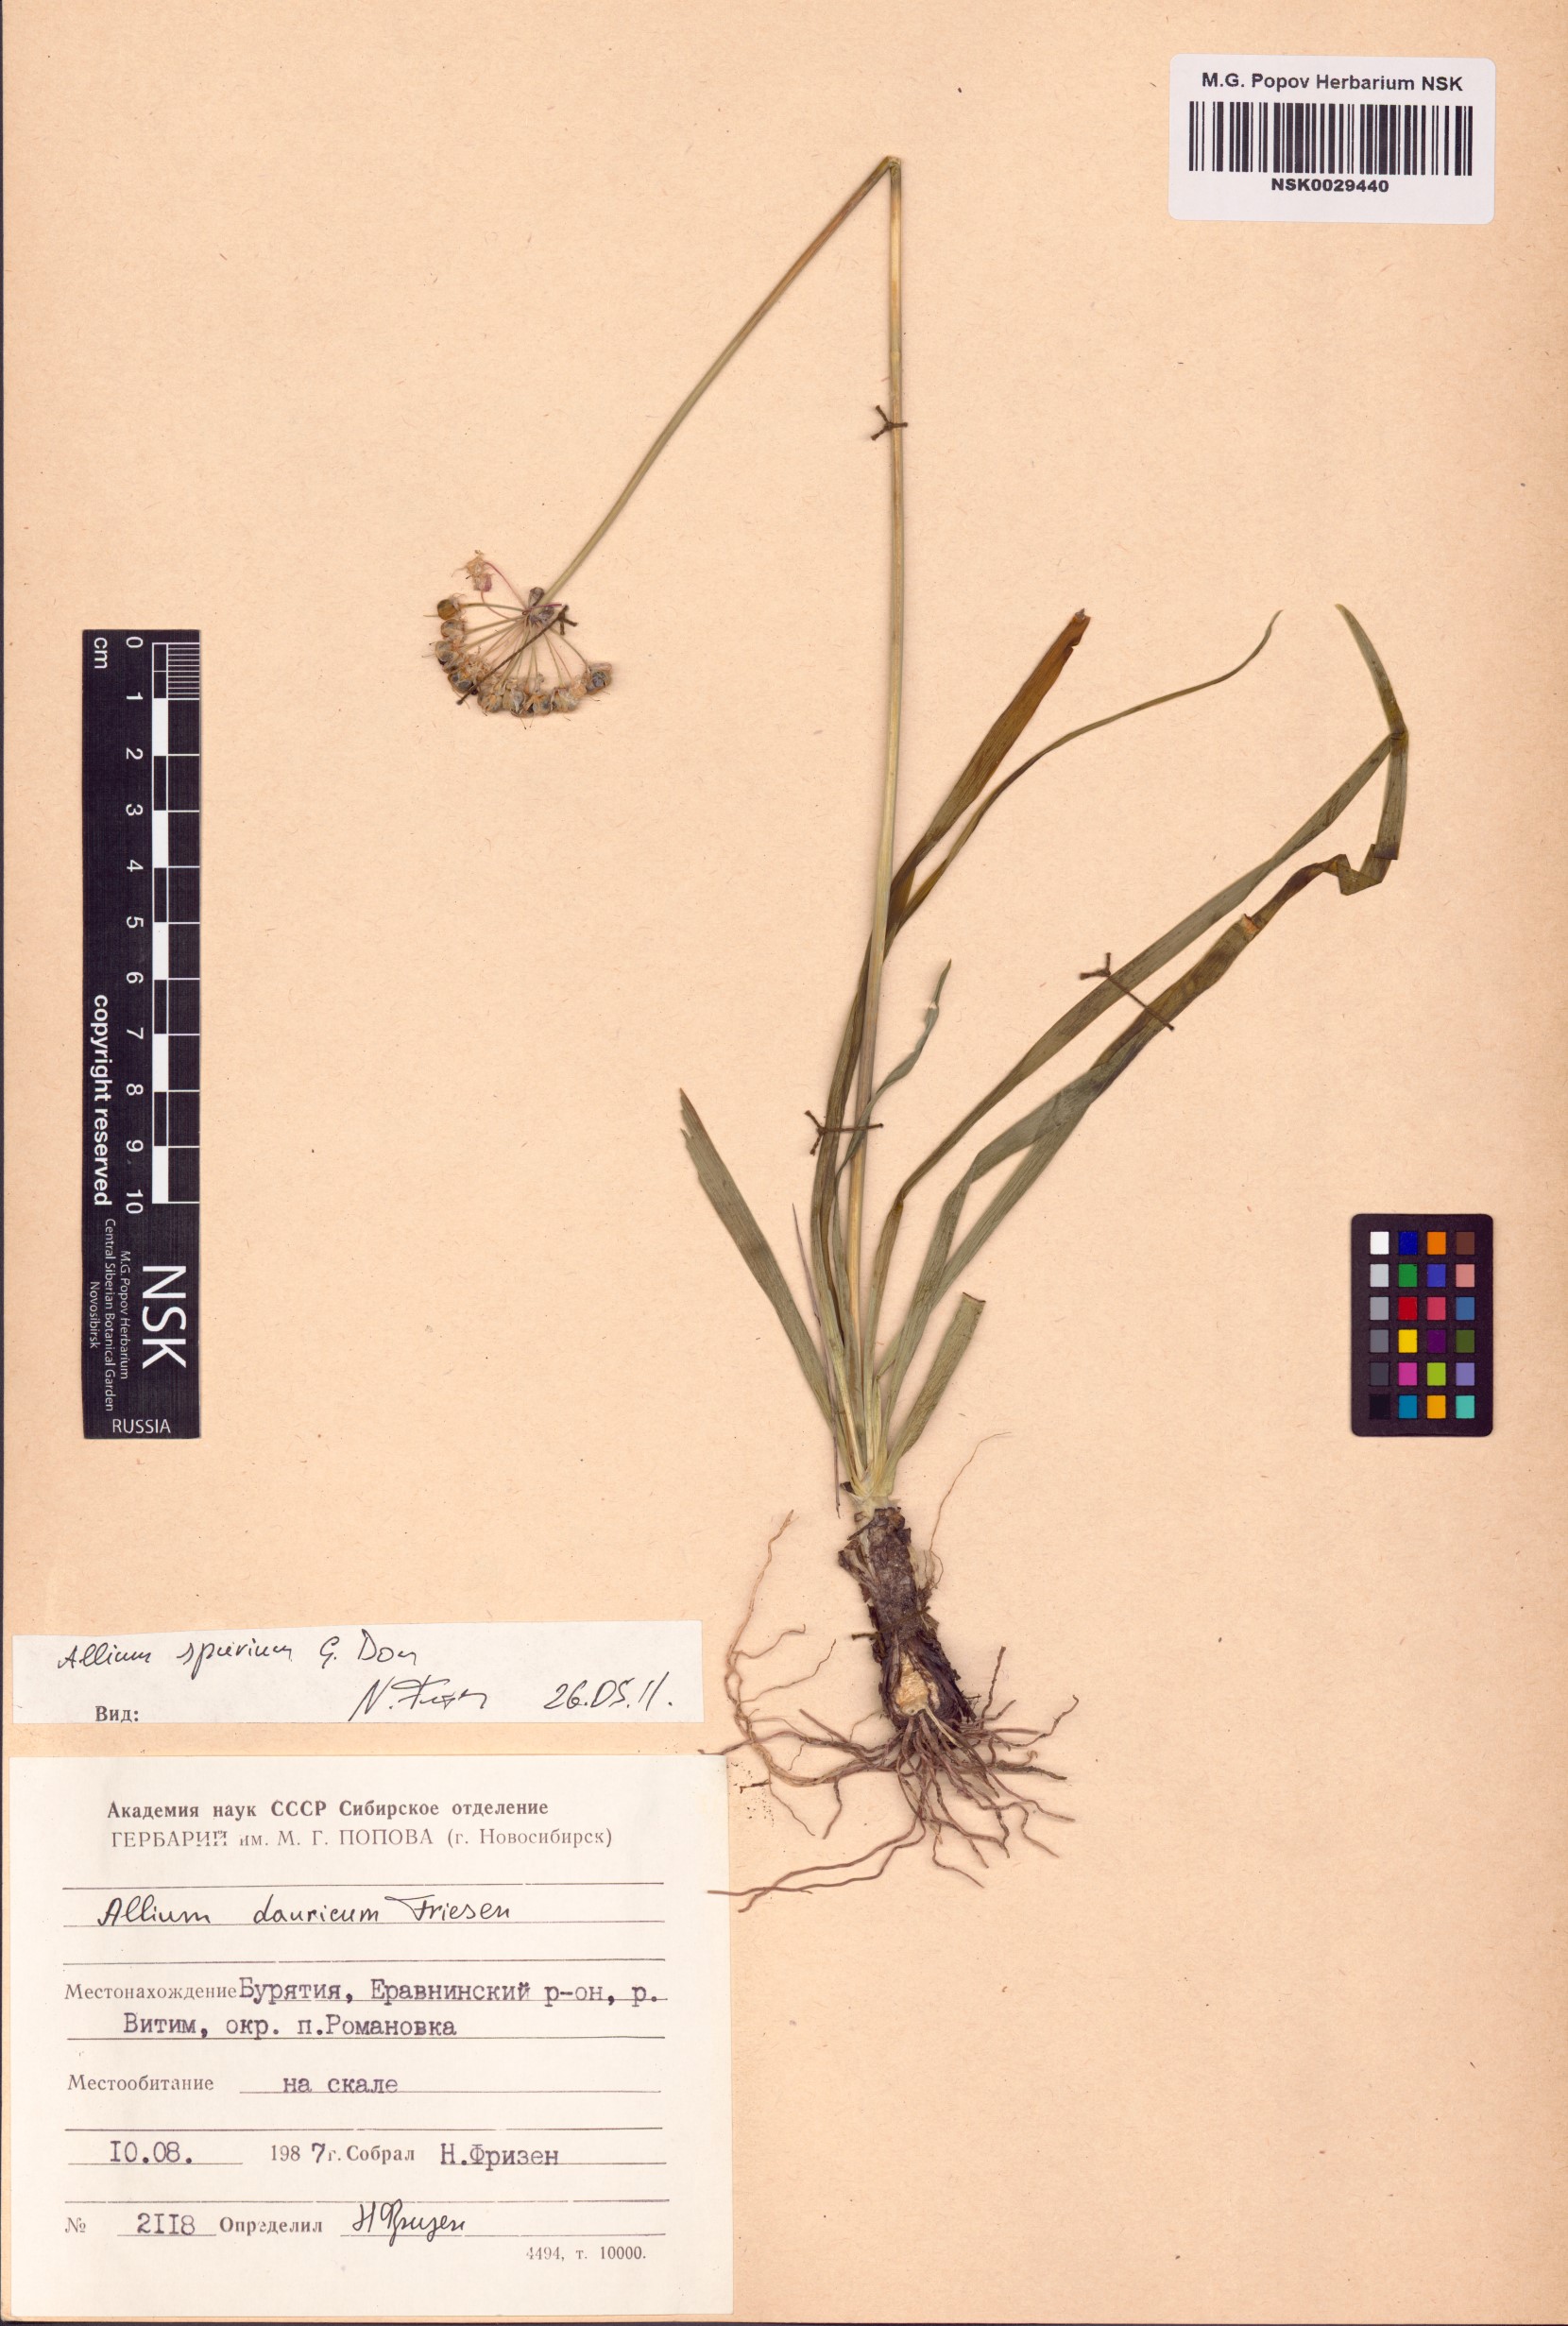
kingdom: Plantae
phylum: Tracheophyta
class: Liliopsida
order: Asparagales
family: Amaryllidaceae
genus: Allium
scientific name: Allium spurium
